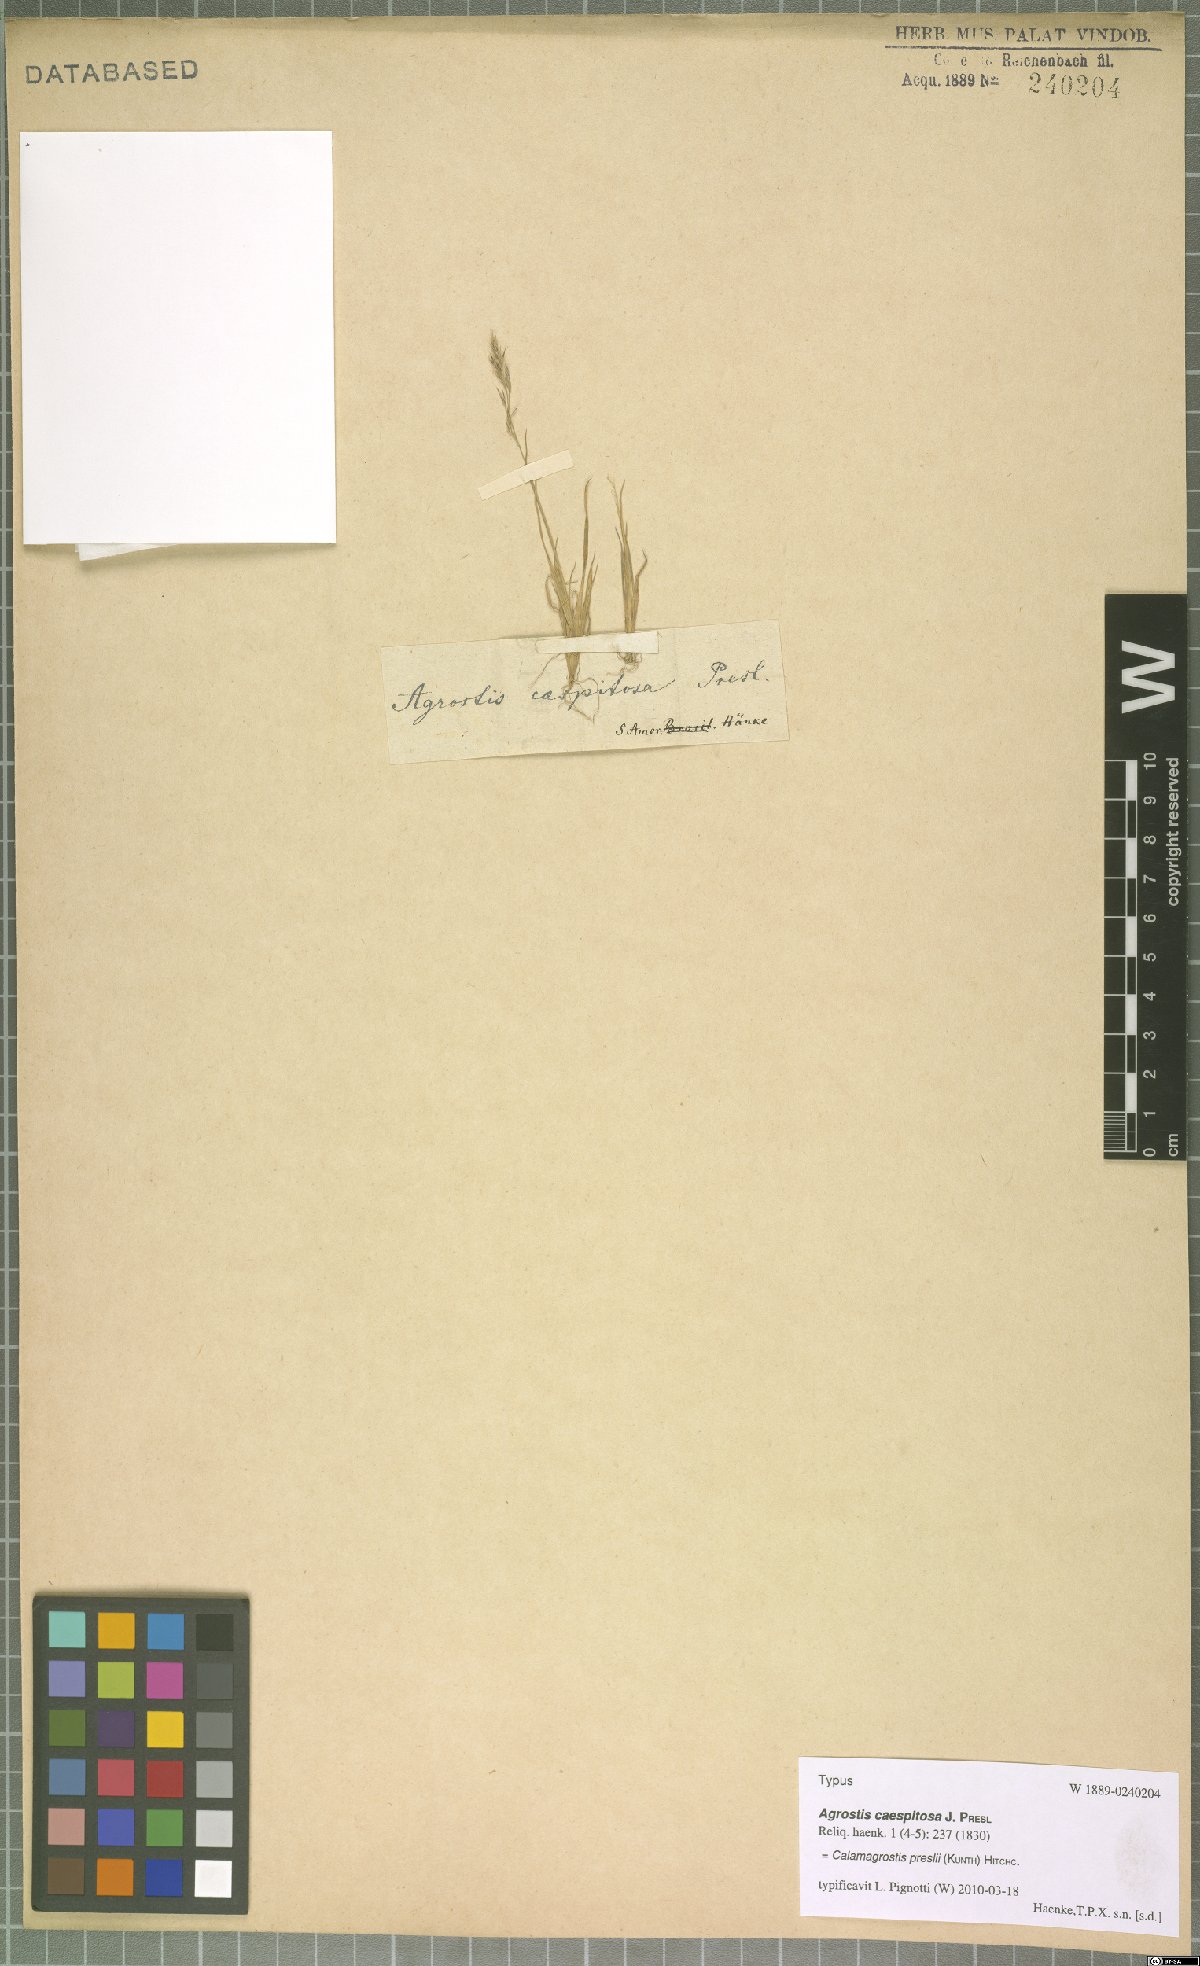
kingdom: Plantae
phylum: Tracheophyta
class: Liliopsida
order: Poales
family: Poaceae
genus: Cinnagrostis
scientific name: Cinnagrostis preslii
